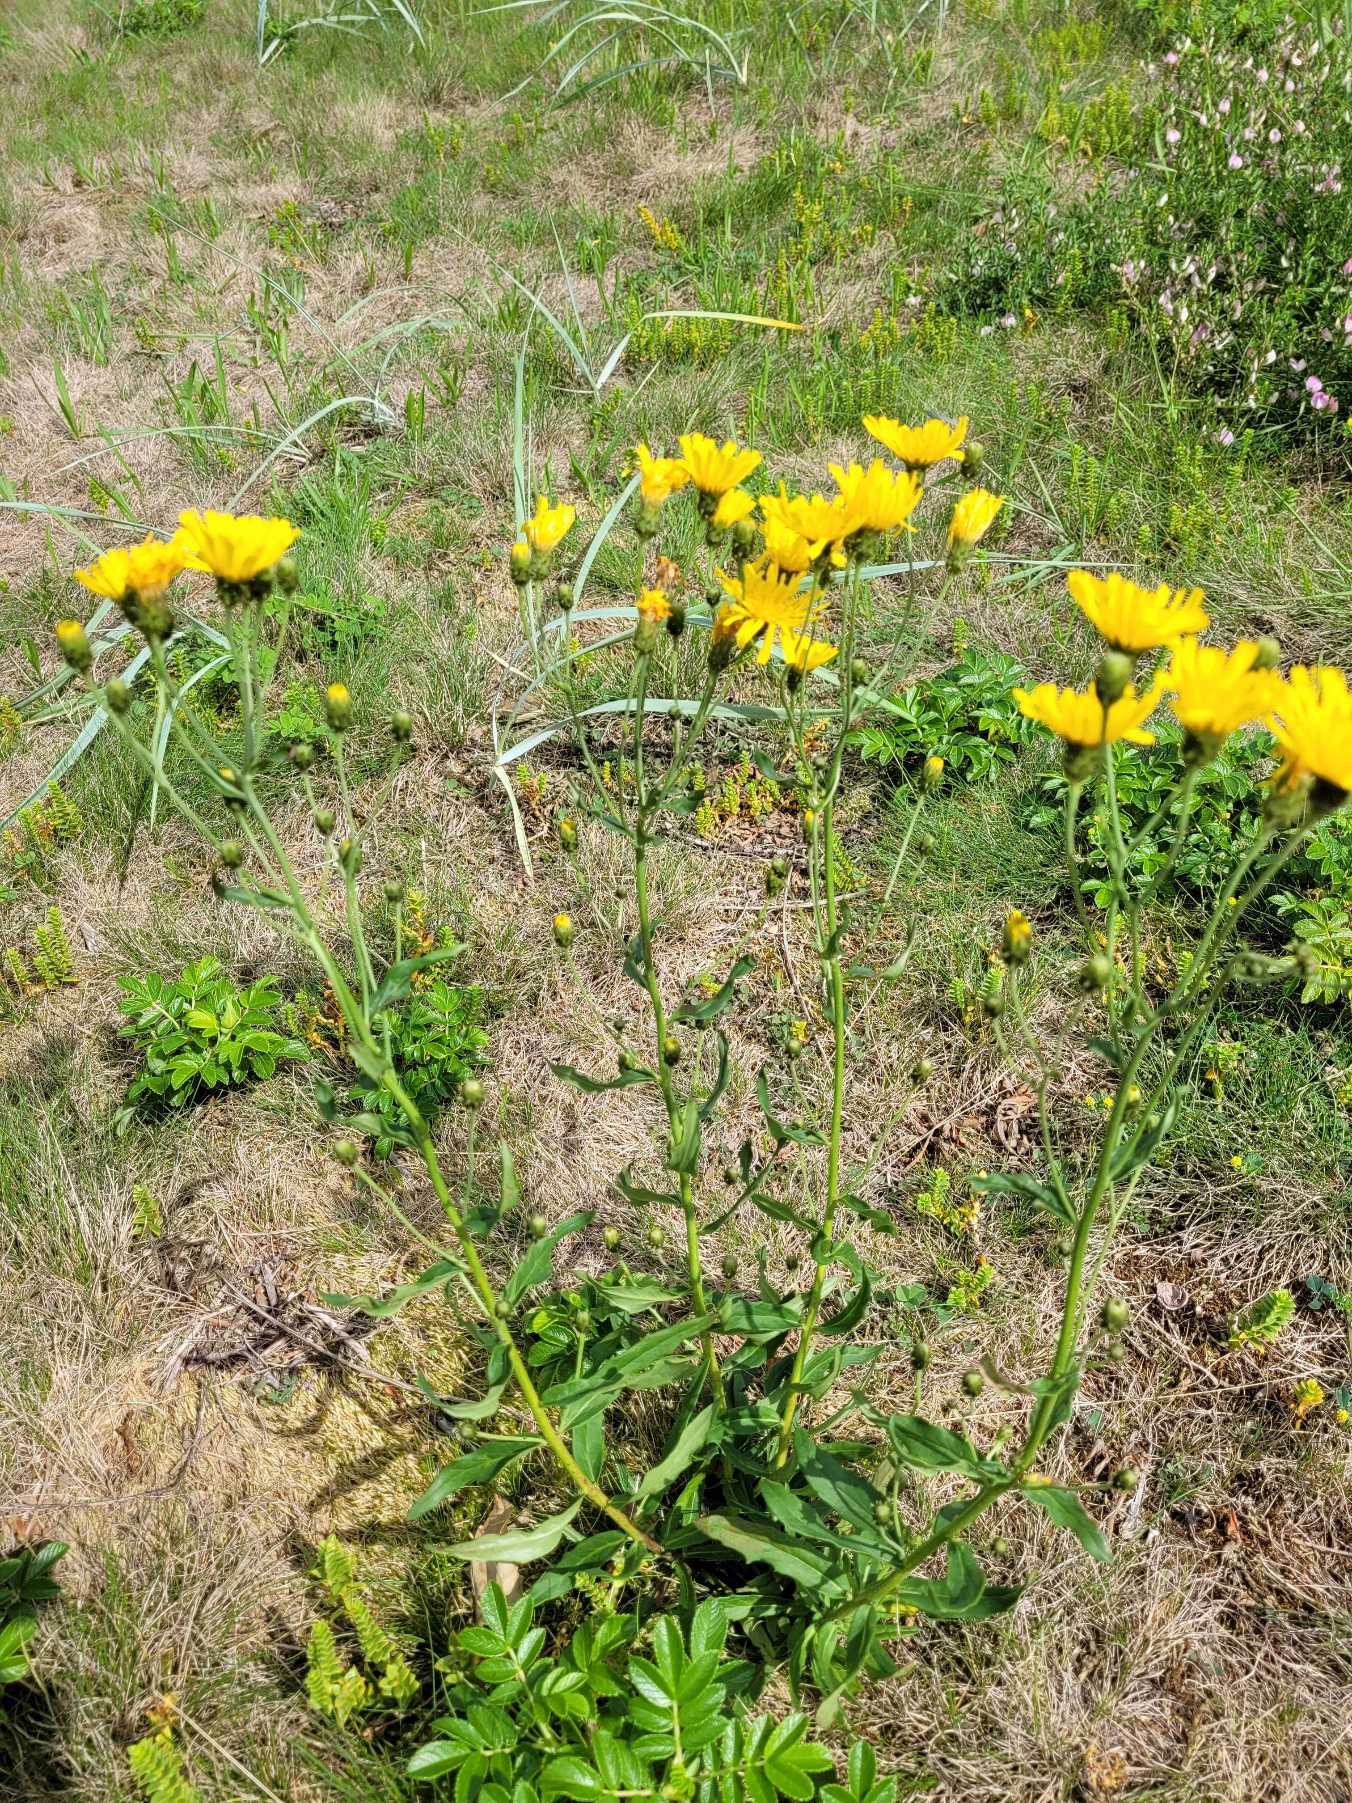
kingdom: Plantae
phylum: Tracheophyta
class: Magnoliopsida
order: Asterales
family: Asteraceae
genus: Hieracium
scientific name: Hieracium umbellatum
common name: Smalbladet høgeurt
